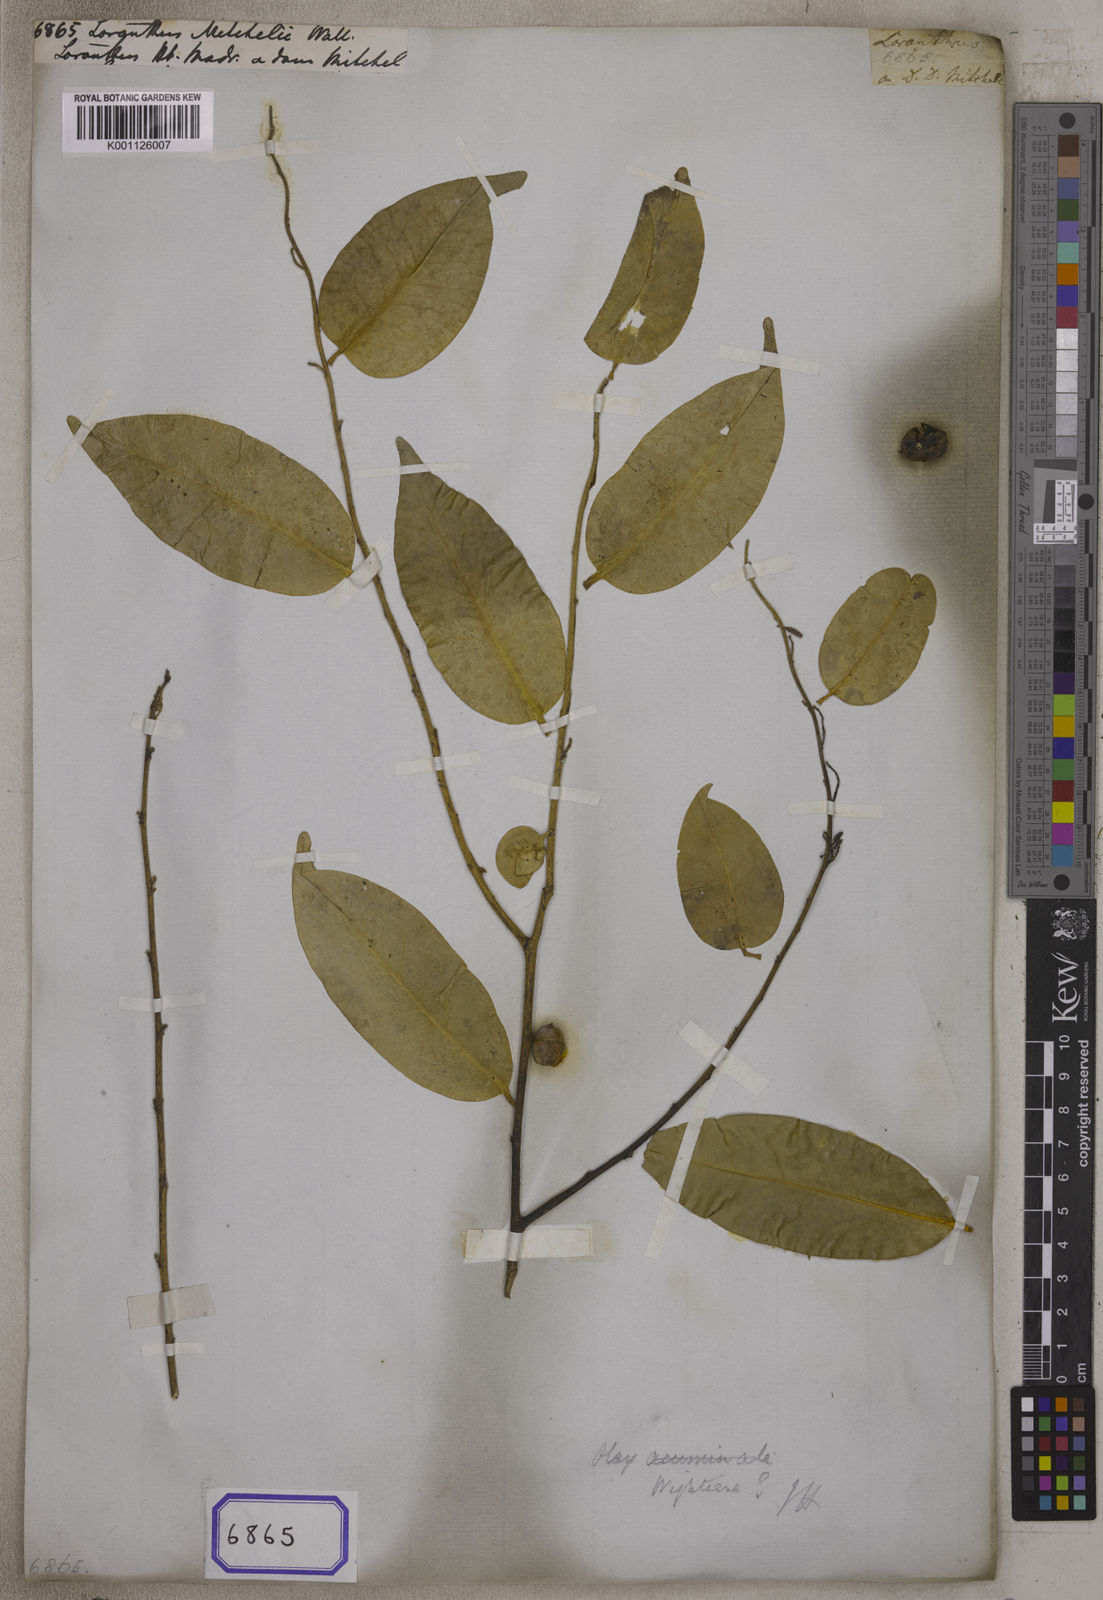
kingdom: Plantae
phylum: Tracheophyta
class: Magnoliopsida
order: Santalales
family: Loranthaceae
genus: Oryctanthus
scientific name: Oryctanthus spicatus
